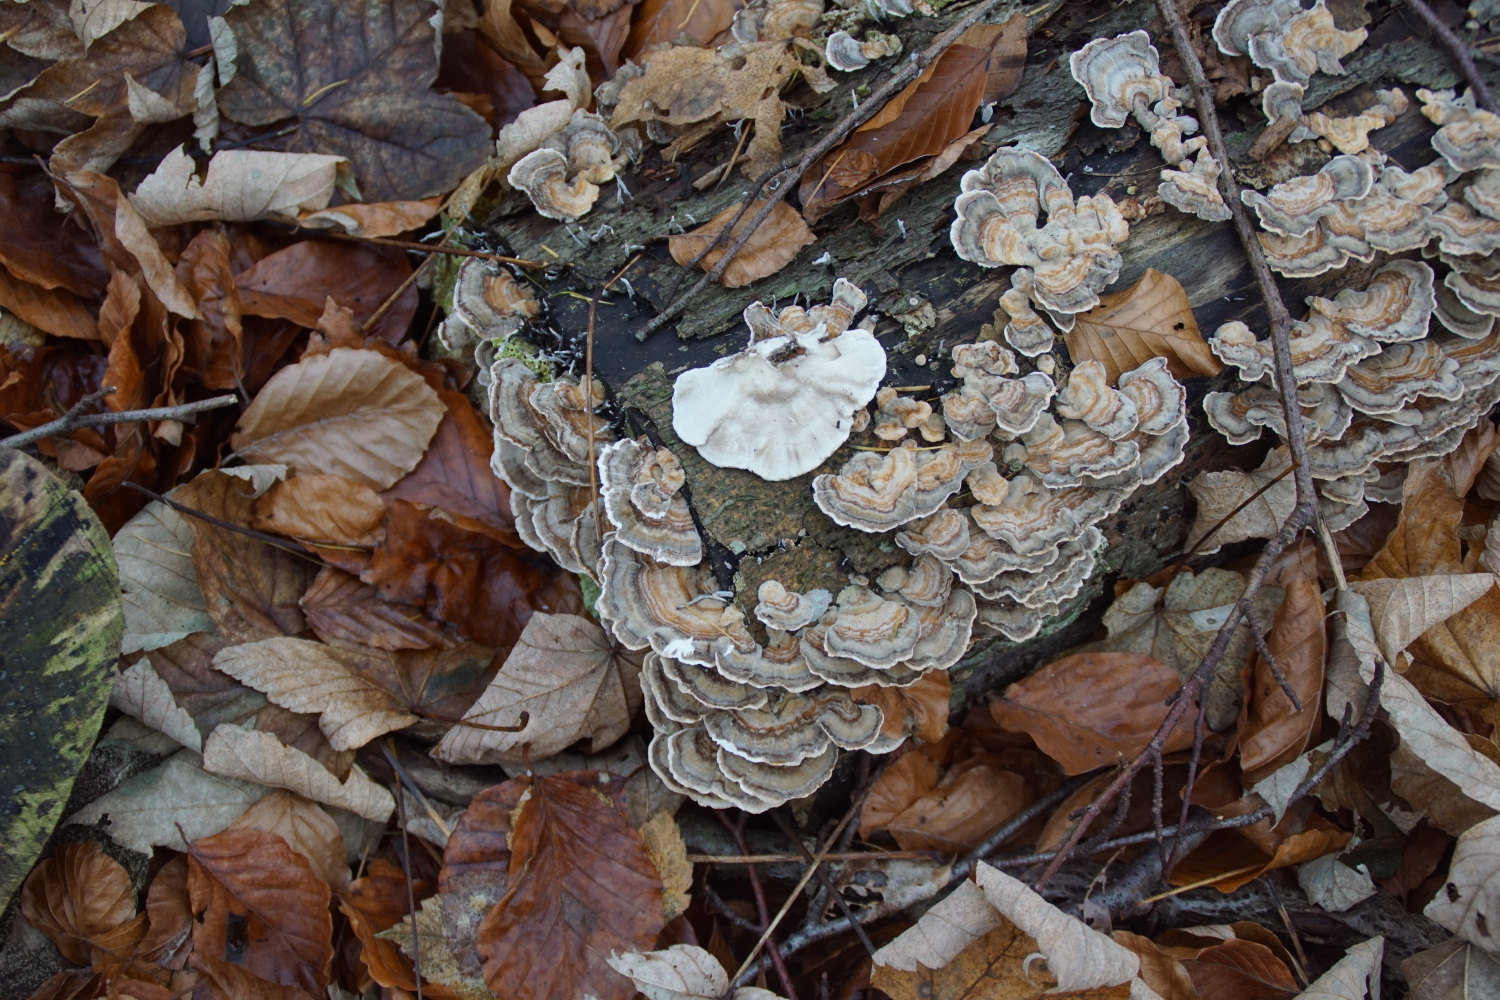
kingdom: Fungi
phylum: Basidiomycota
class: Agaricomycetes
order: Polyporales
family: Polyporaceae
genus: Trametes
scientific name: Trametes versicolor
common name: broget læderporesvamp
